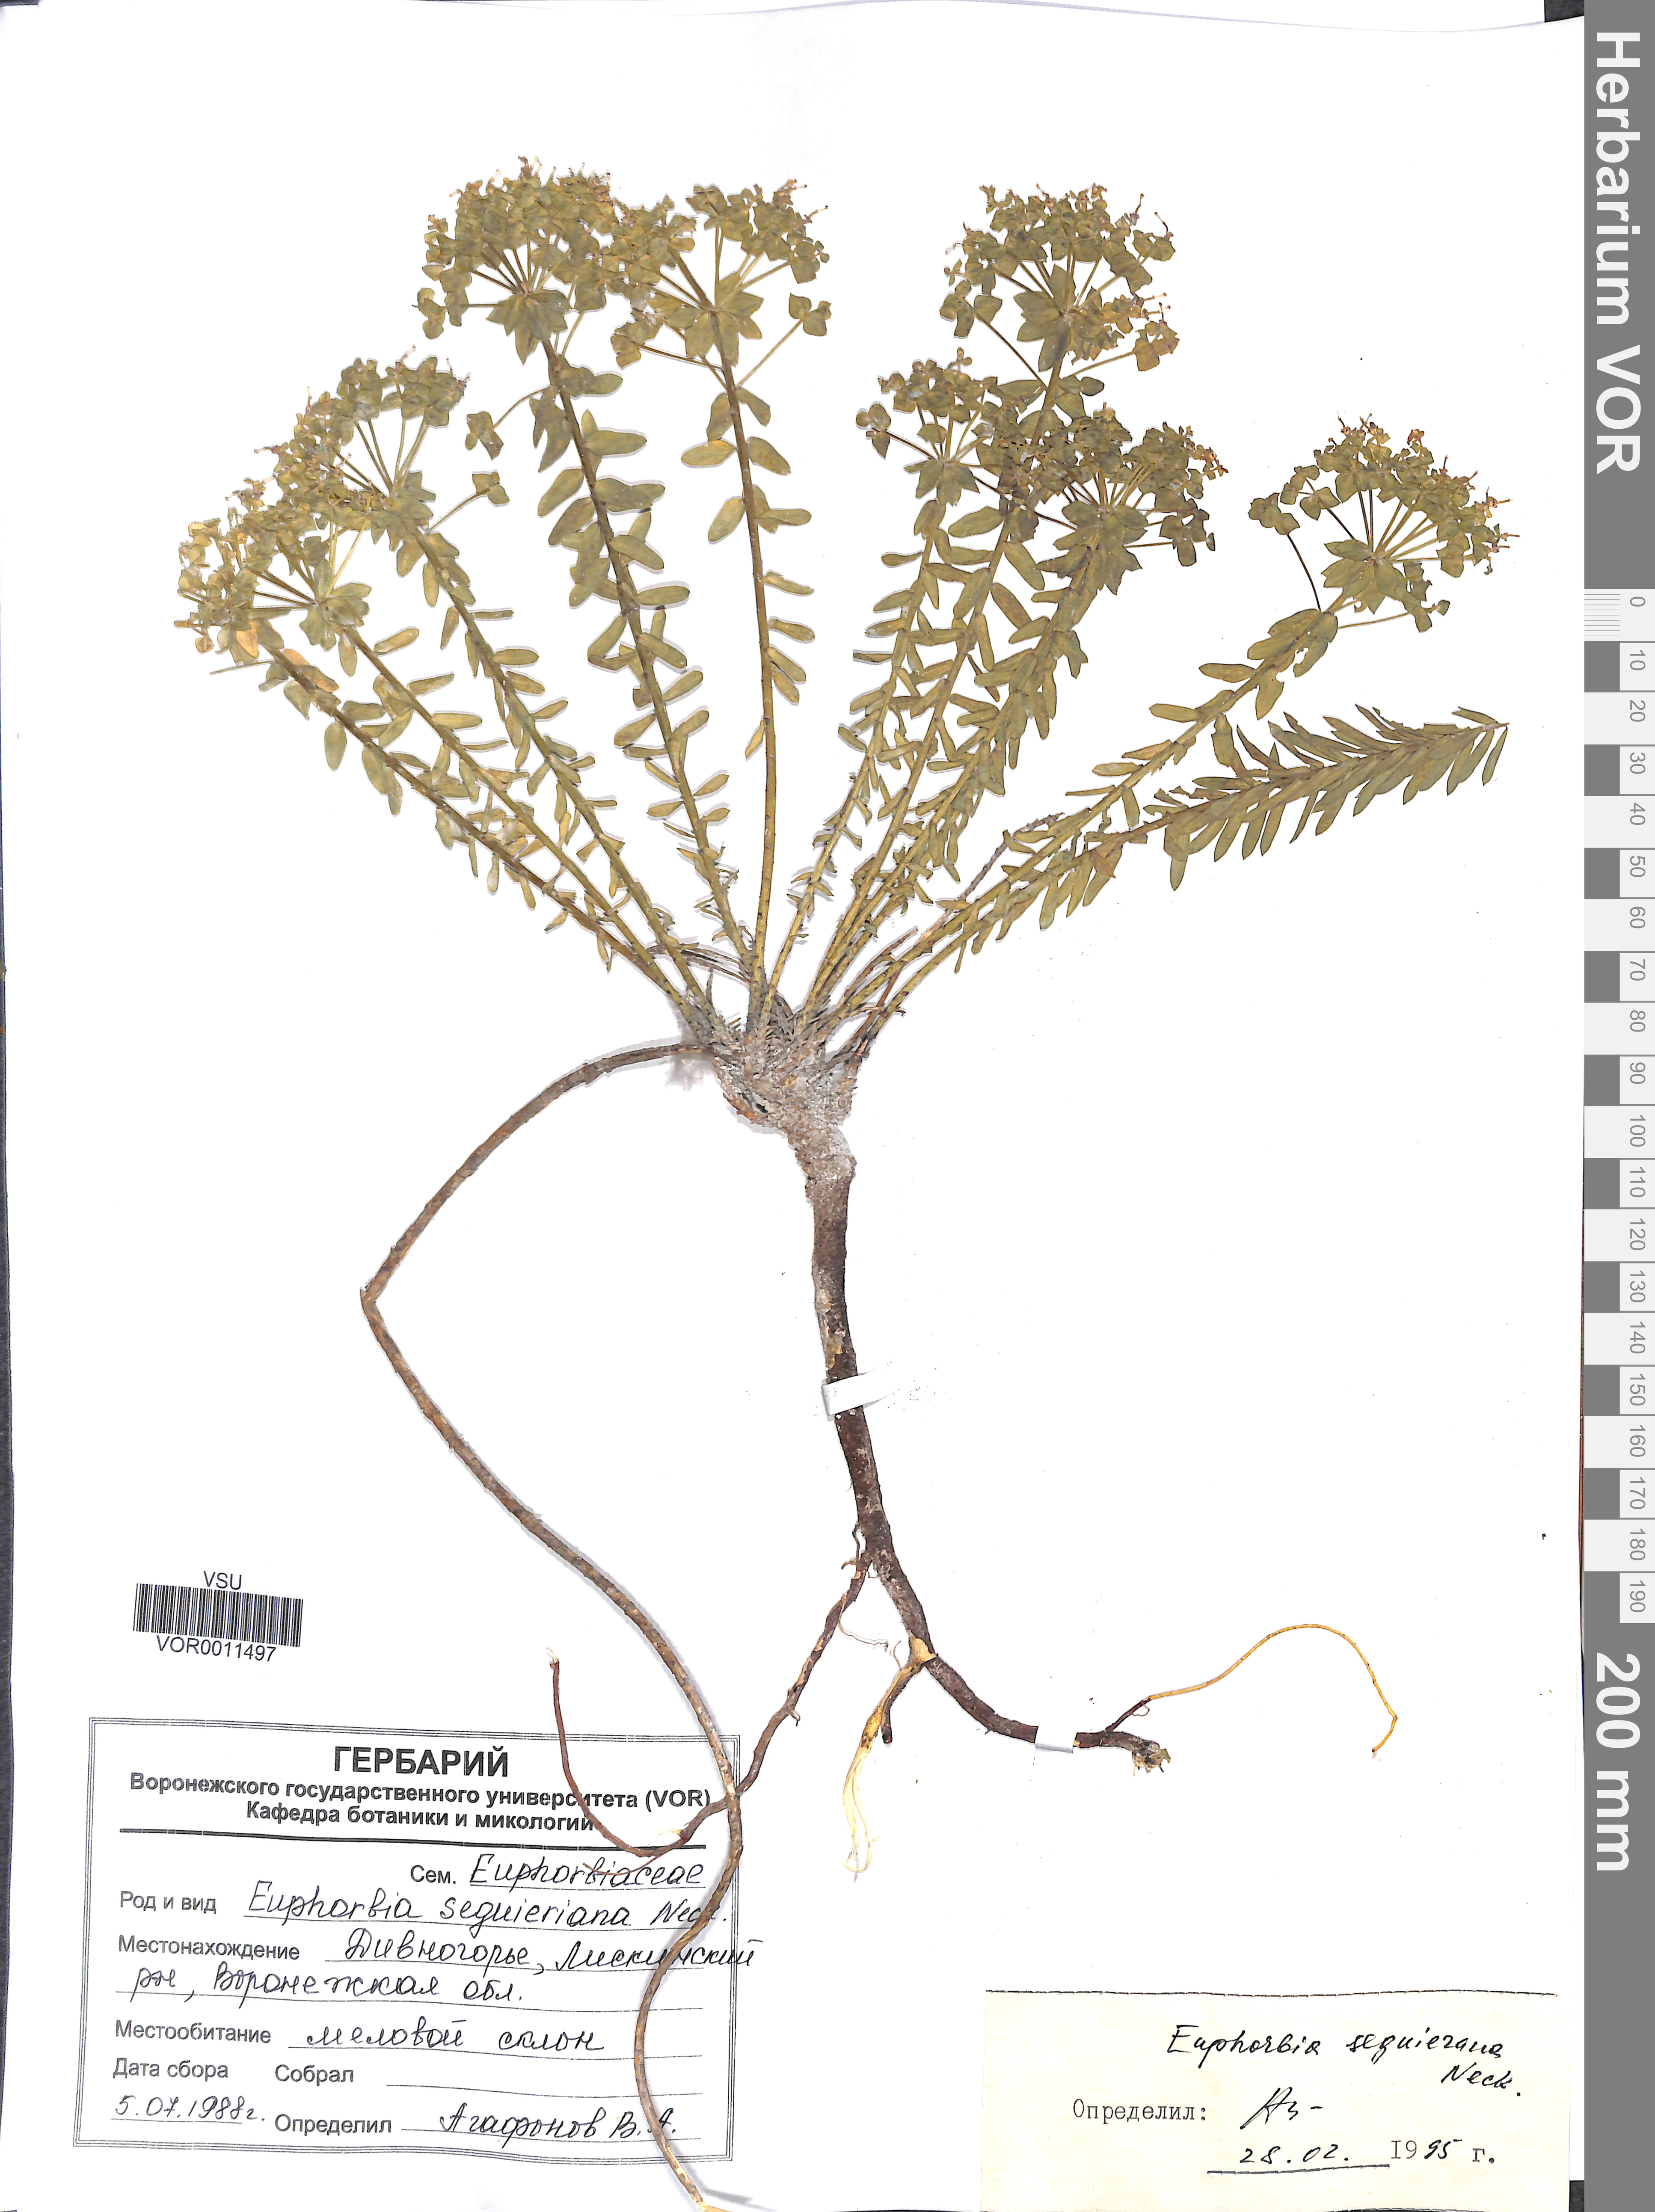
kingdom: Plantae
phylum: Tracheophyta
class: Magnoliopsida
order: Malpighiales
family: Euphorbiaceae
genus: Euphorbia
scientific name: Euphorbia seguieriana
